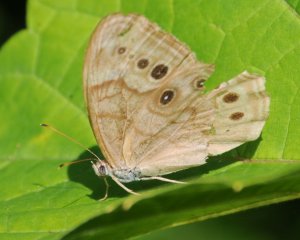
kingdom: Animalia
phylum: Arthropoda
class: Insecta
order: Lepidoptera
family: Nymphalidae
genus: Lethe
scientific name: Lethe anthedon
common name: Northern Pearly-Eye
